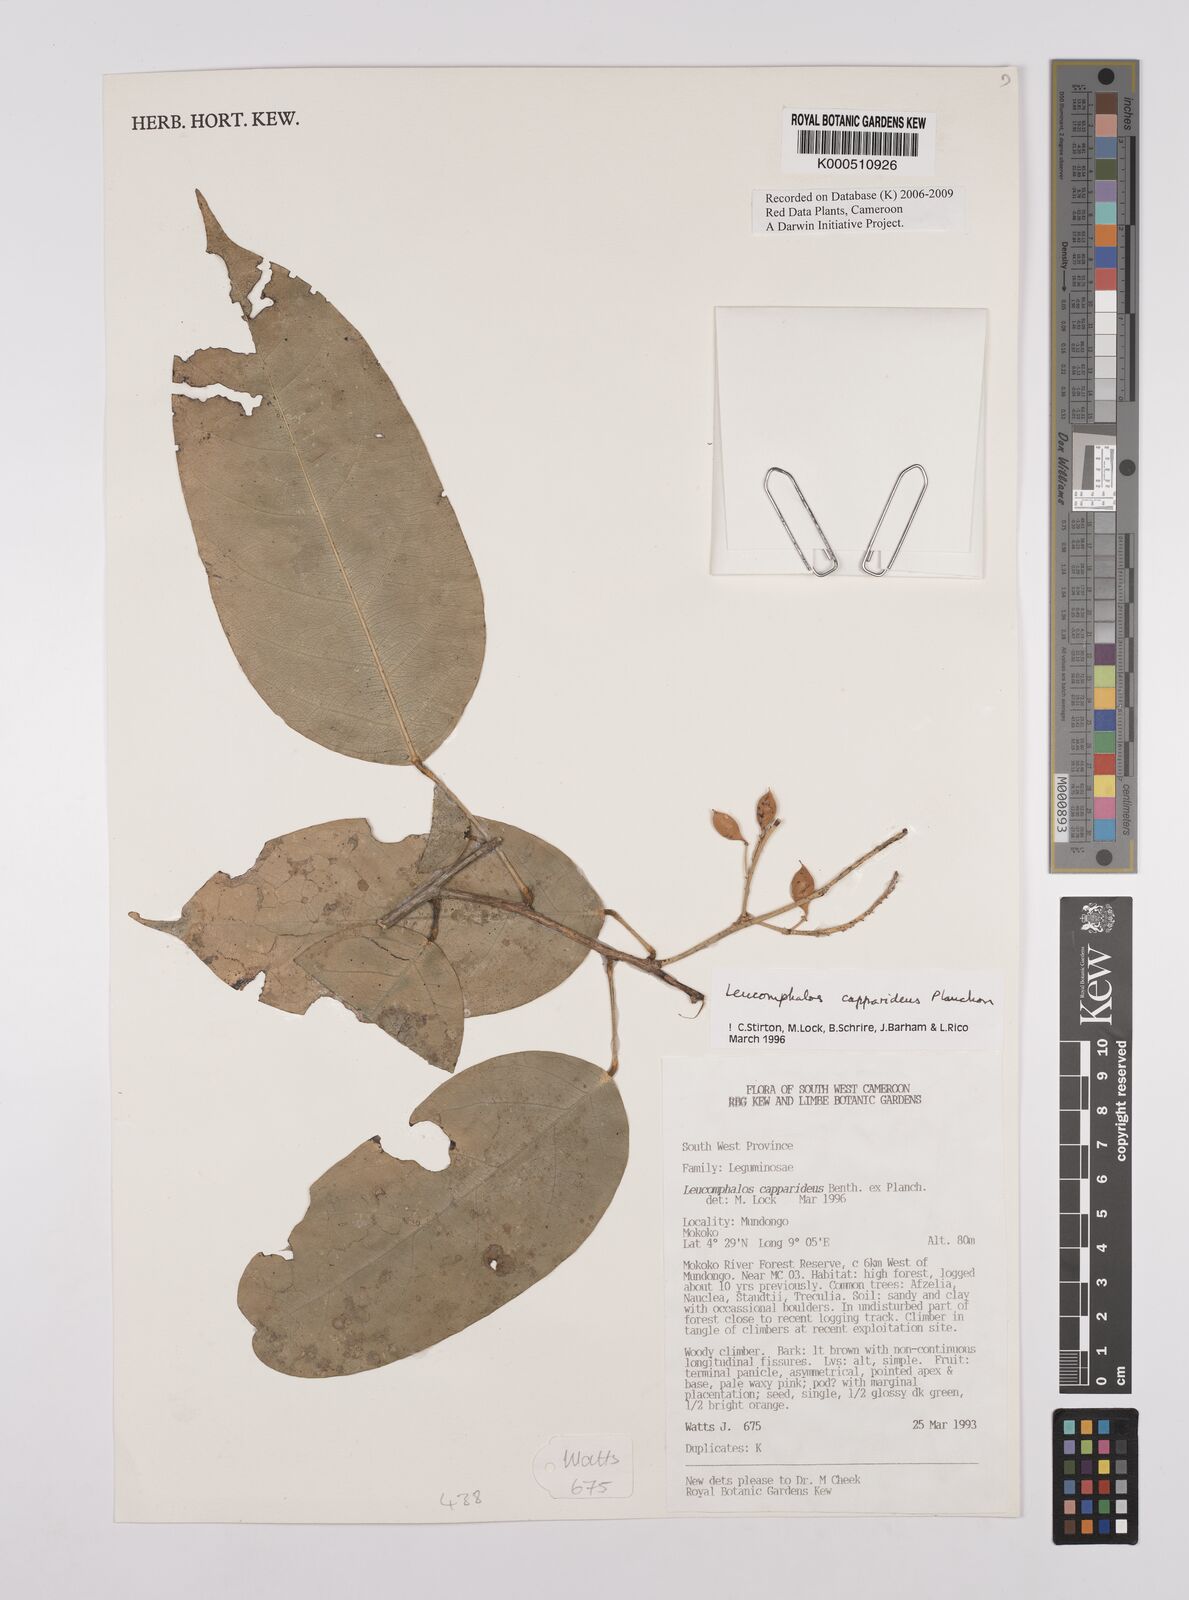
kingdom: Plantae
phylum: Tracheophyta
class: Magnoliopsida
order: Fabales
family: Fabaceae
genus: Leucomphalos
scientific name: Leucomphalos
